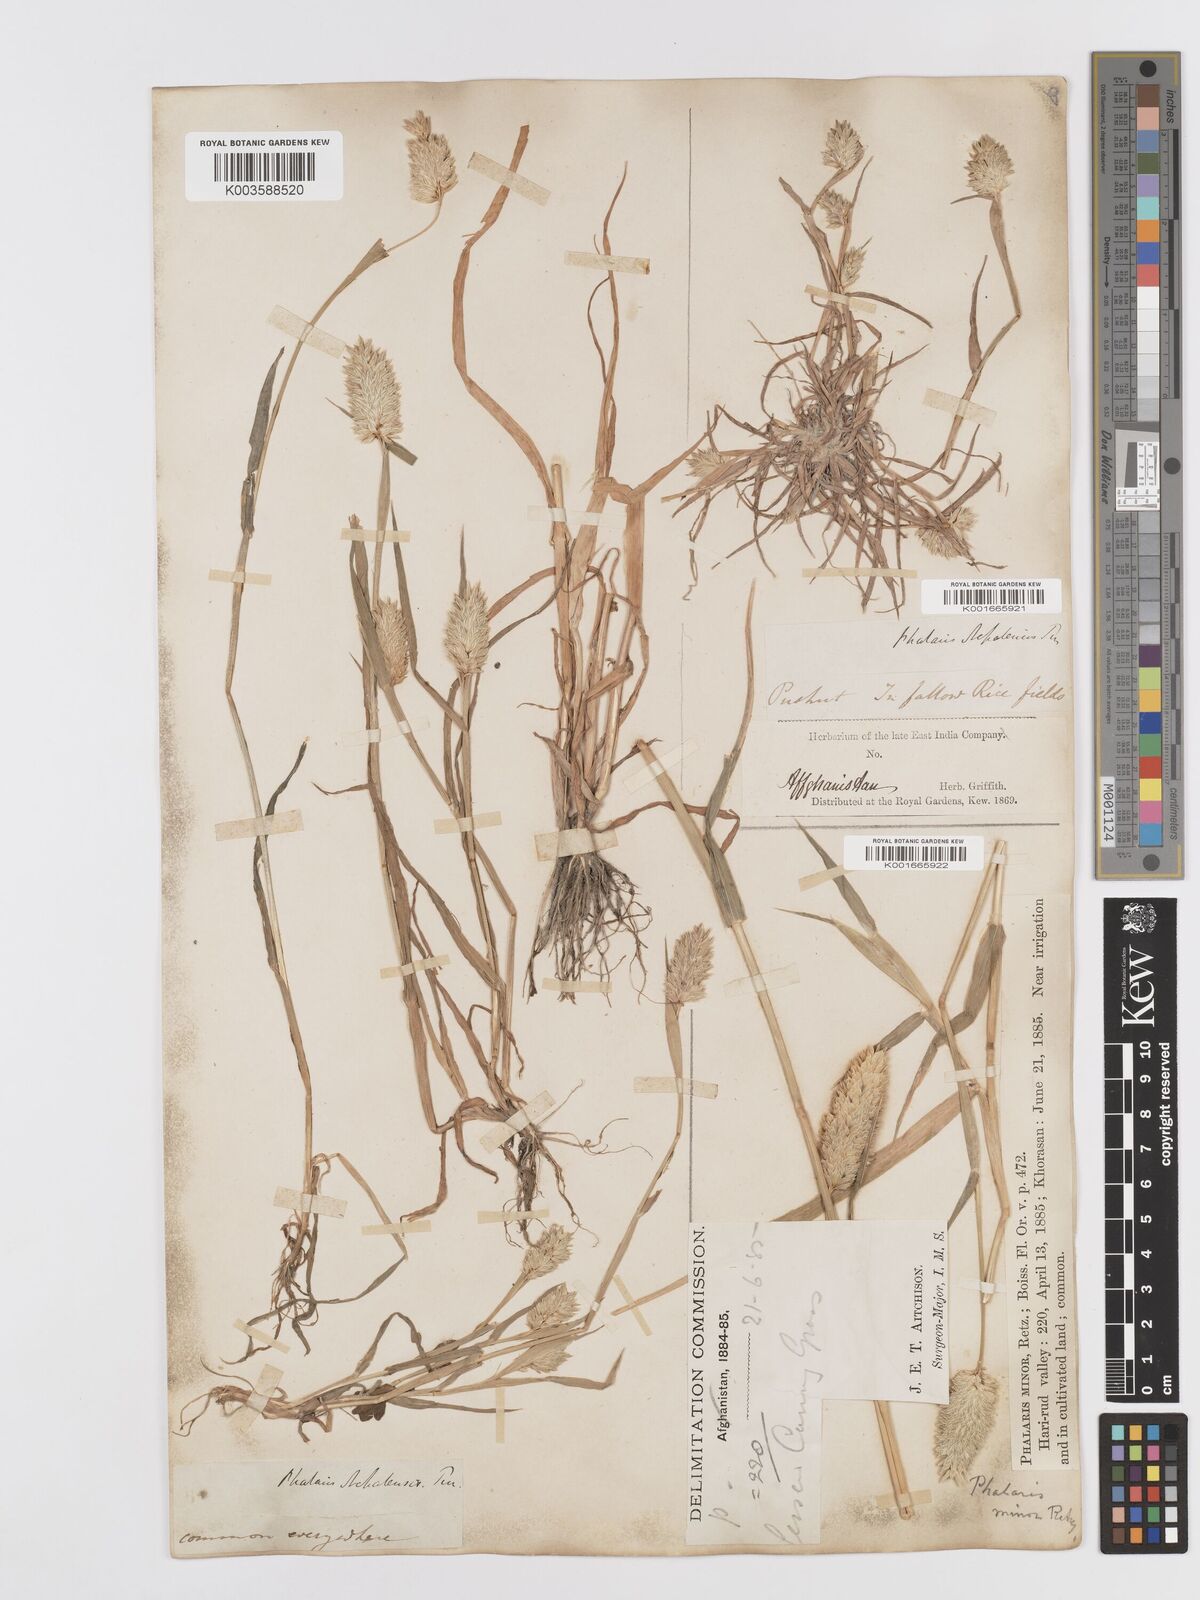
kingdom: Plantae
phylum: Tracheophyta
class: Liliopsida
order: Poales
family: Poaceae
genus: Phalaris
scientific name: Phalaris minor
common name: Littleseed canarygrass
